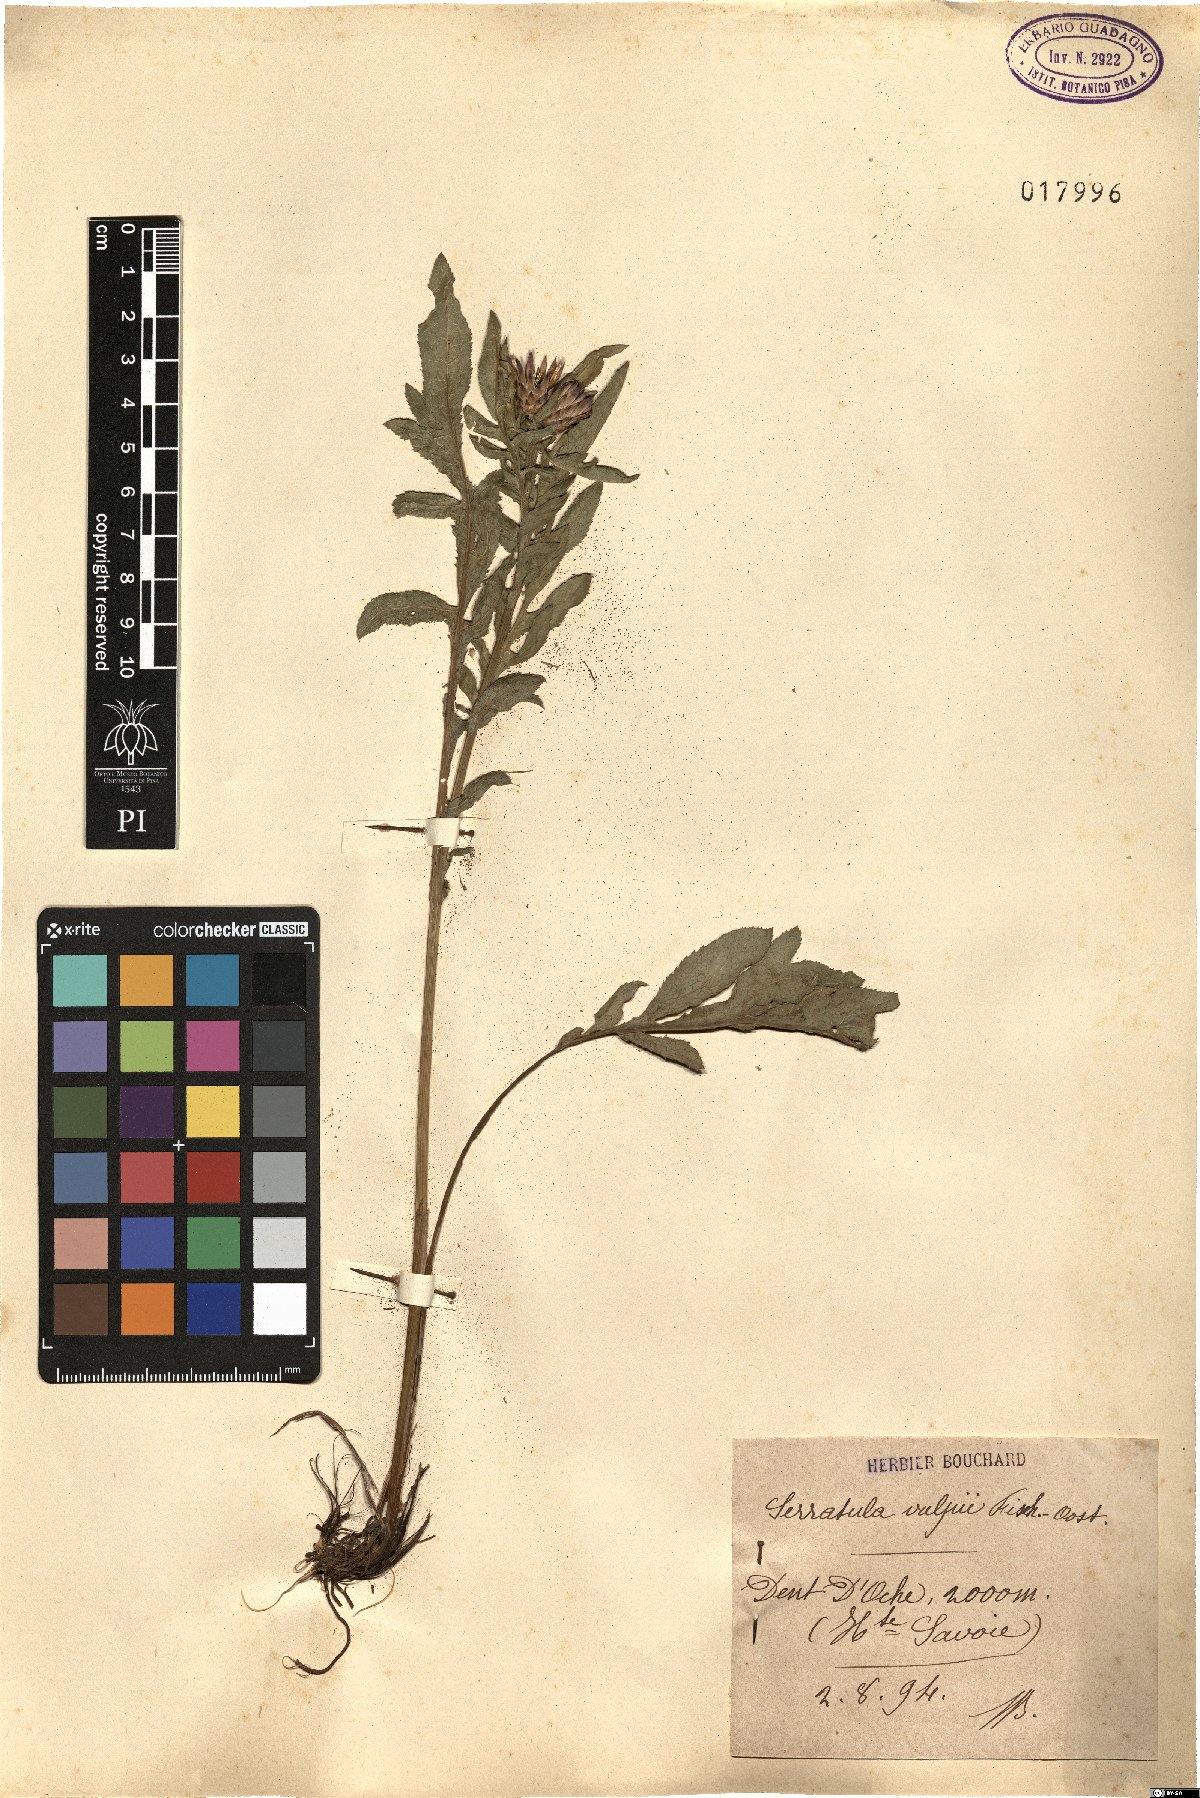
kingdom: Plantae
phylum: Tracheophyta
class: Magnoliopsida
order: Asterales
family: Asteraceae
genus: Serratula
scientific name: Serratula tinctoria
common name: Saw-wort
